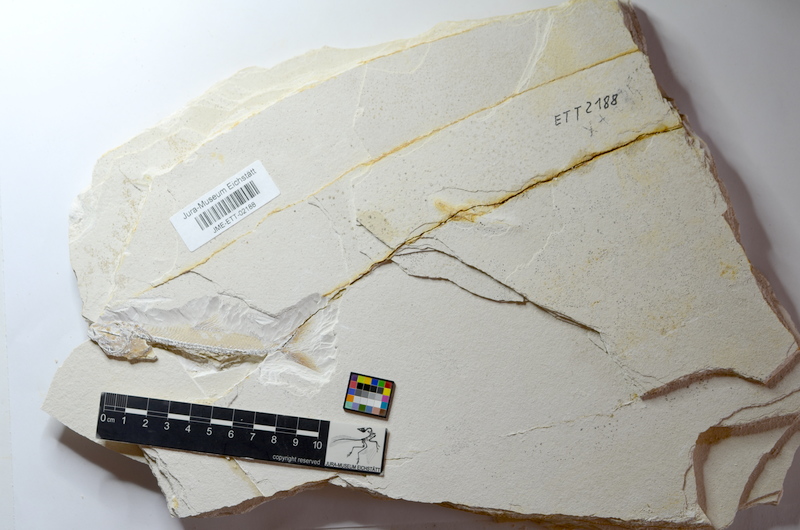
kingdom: Animalia
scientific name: Animalia
